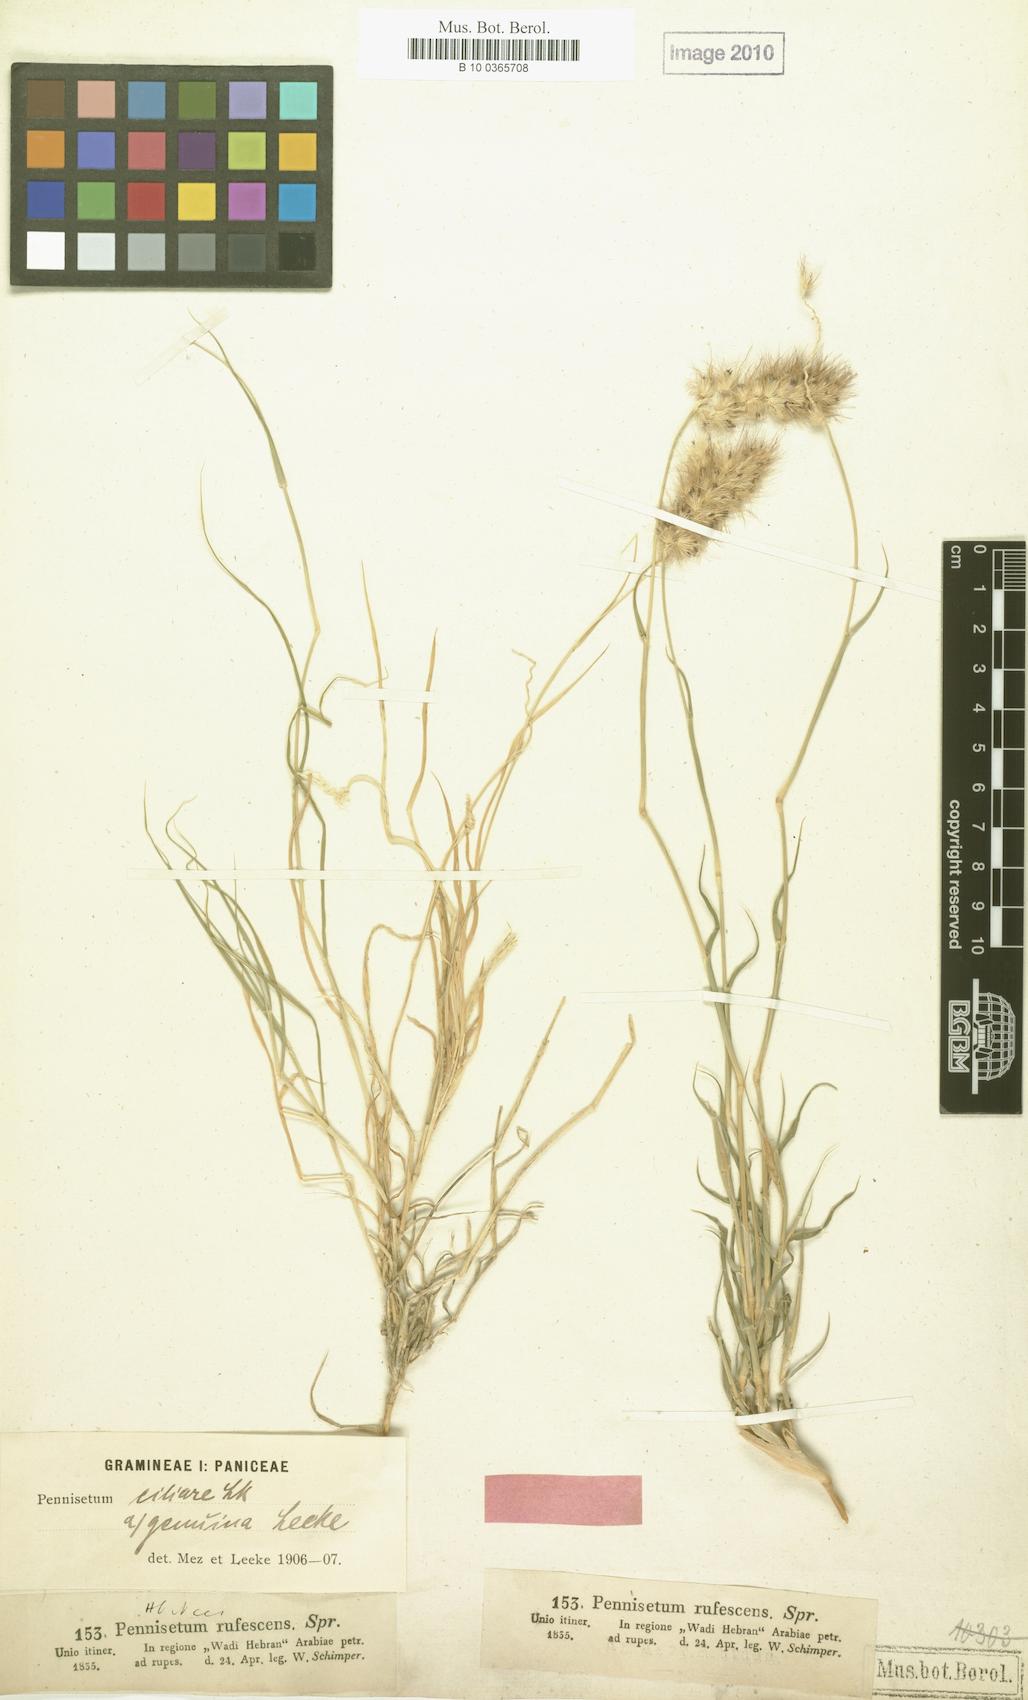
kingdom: Plantae
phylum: Tracheophyta
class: Liliopsida
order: Poales
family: Poaceae
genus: Cenchrus
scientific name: Cenchrus ciliaris
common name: Buffelgrass
